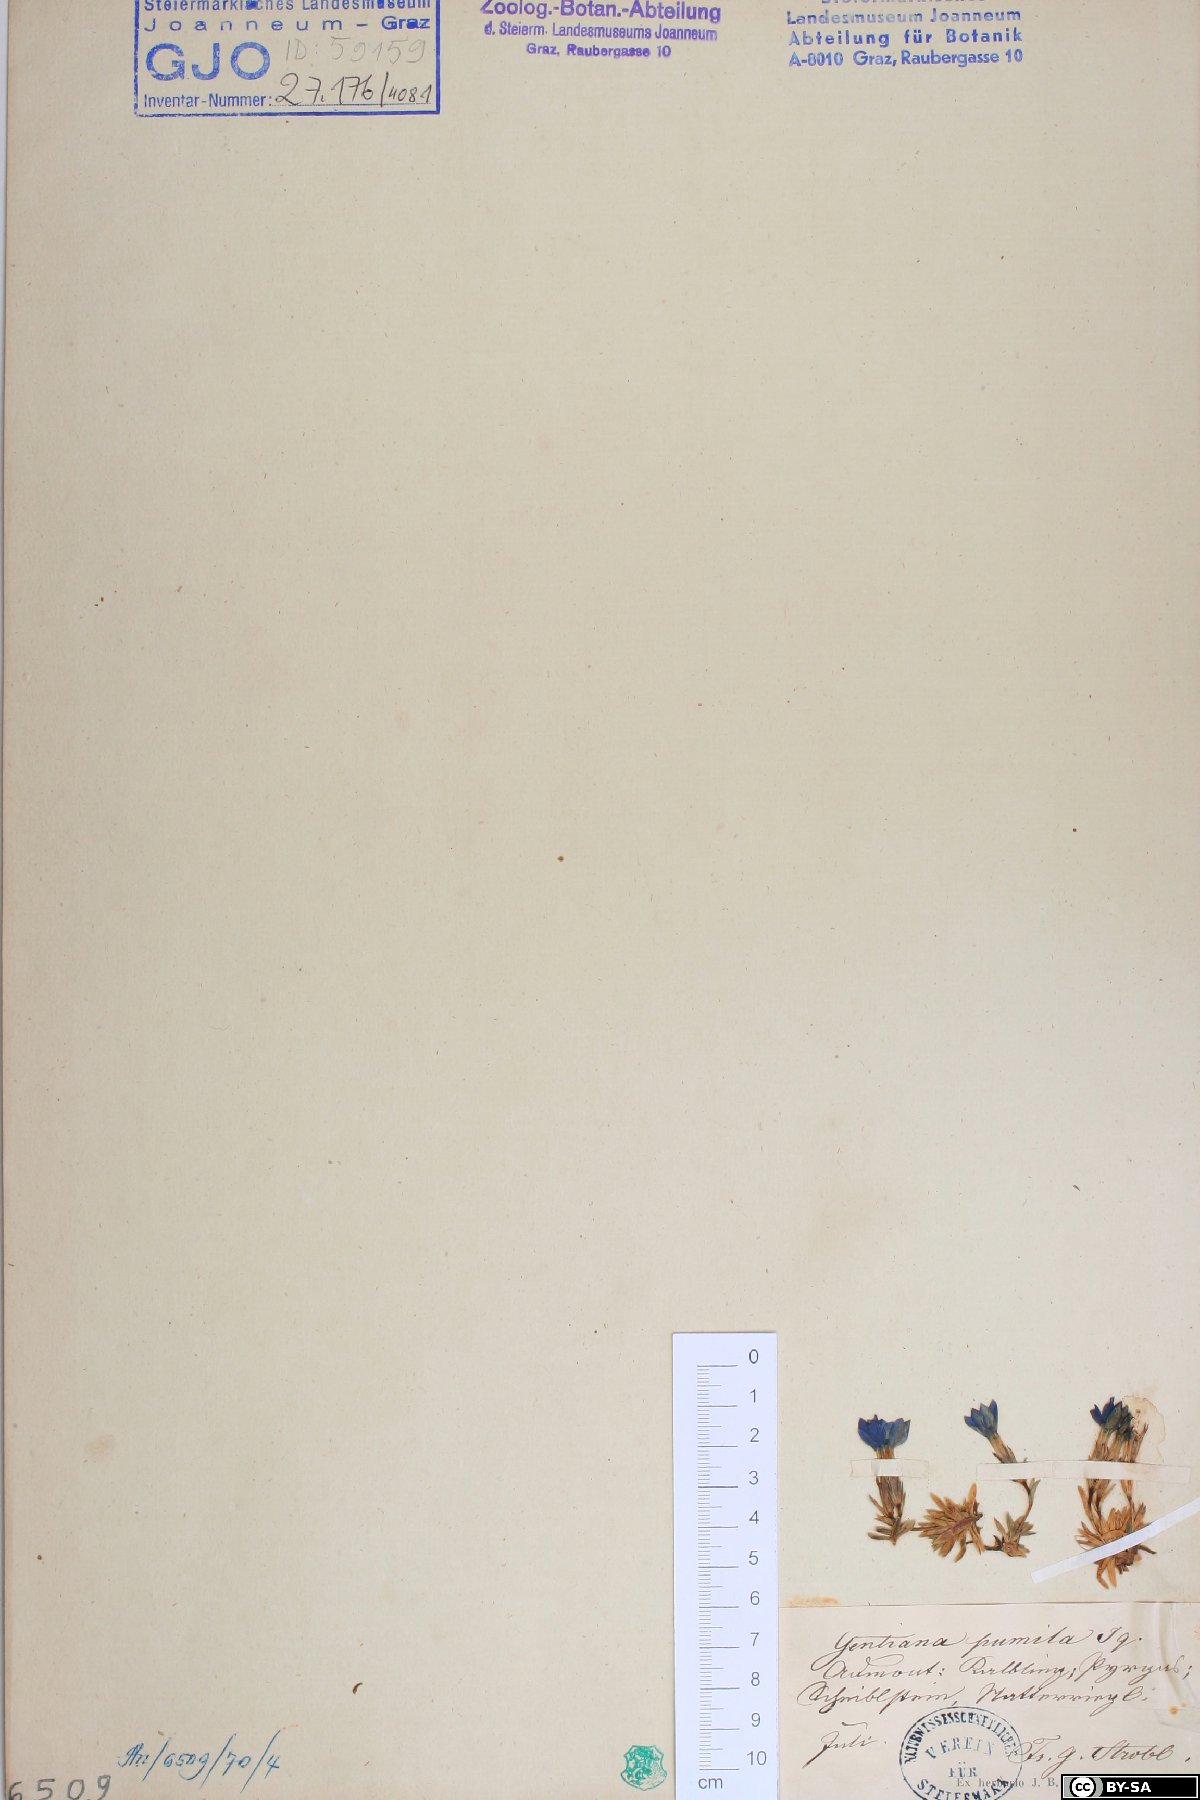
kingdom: Plantae
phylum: Tracheophyta
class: Magnoliopsida
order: Gentianales
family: Gentianaceae
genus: Gentiana
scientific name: Gentiana pumila
